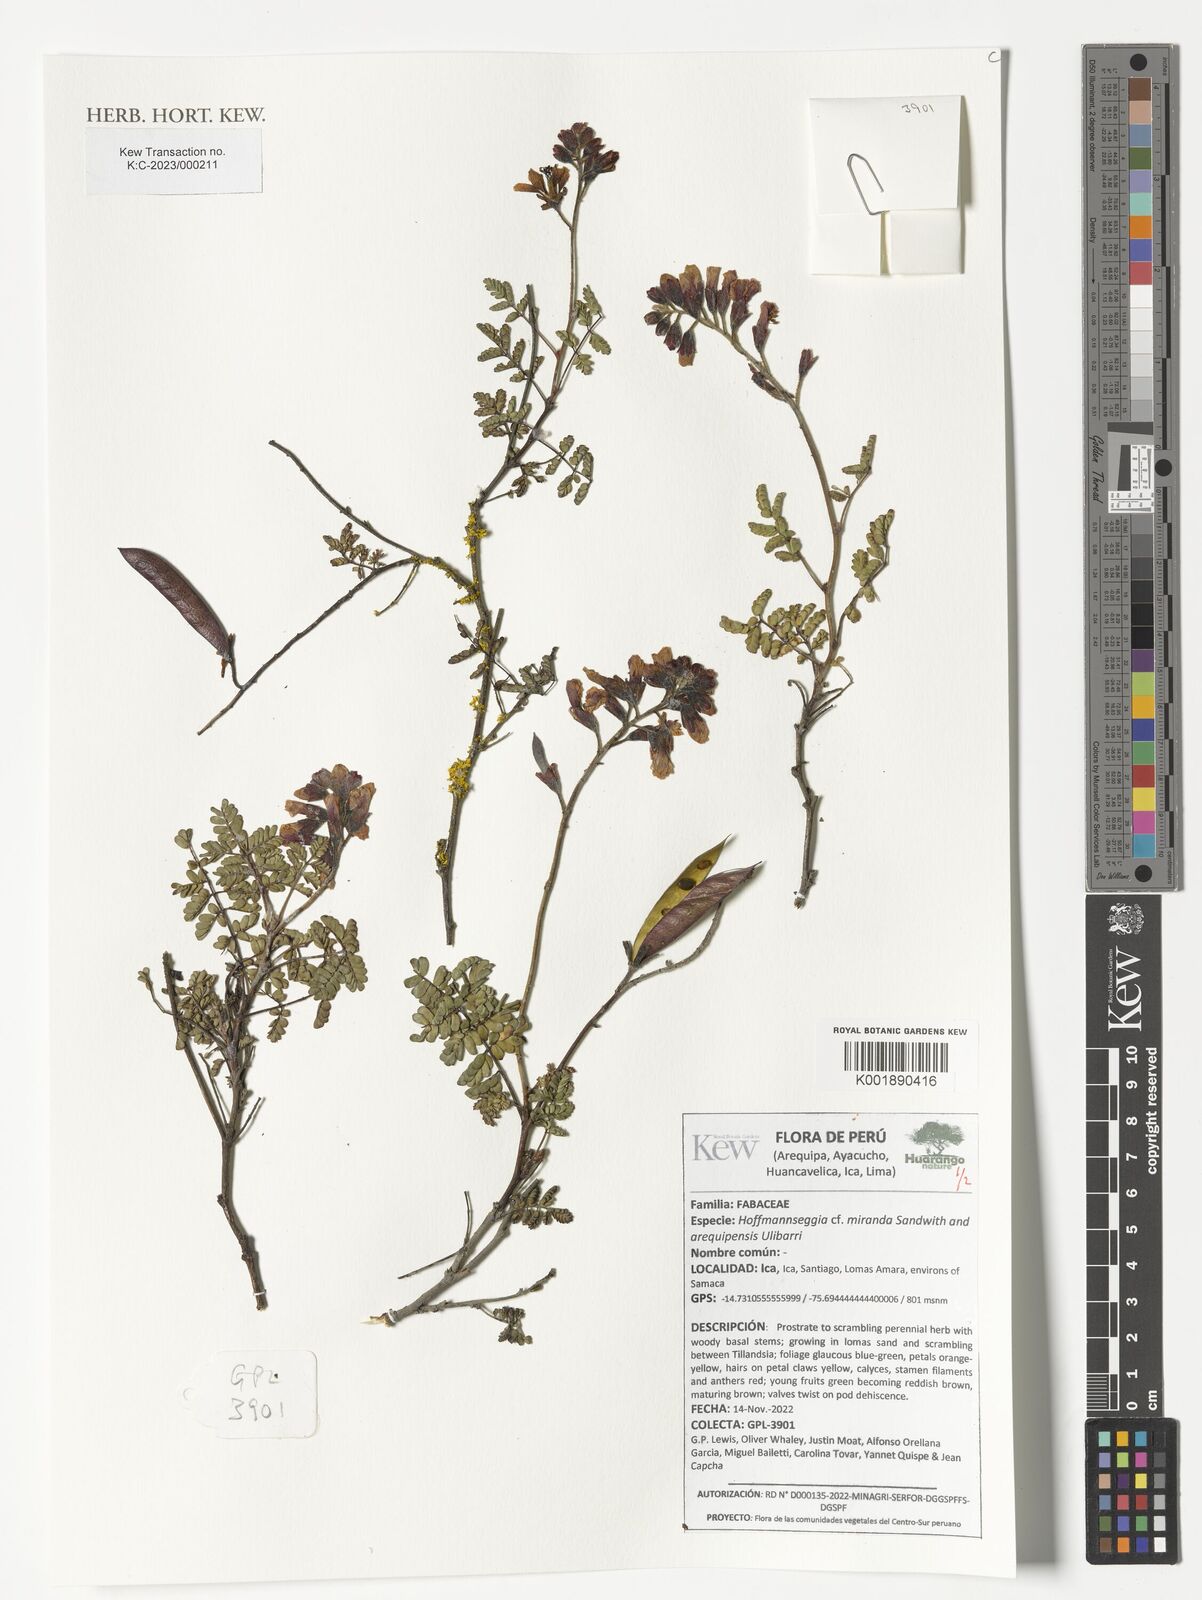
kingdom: Plantae
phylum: Tracheophyta
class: Magnoliopsida
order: Fabales
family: Fabaceae
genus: Hoffmannseggia
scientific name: Hoffmannseggia
